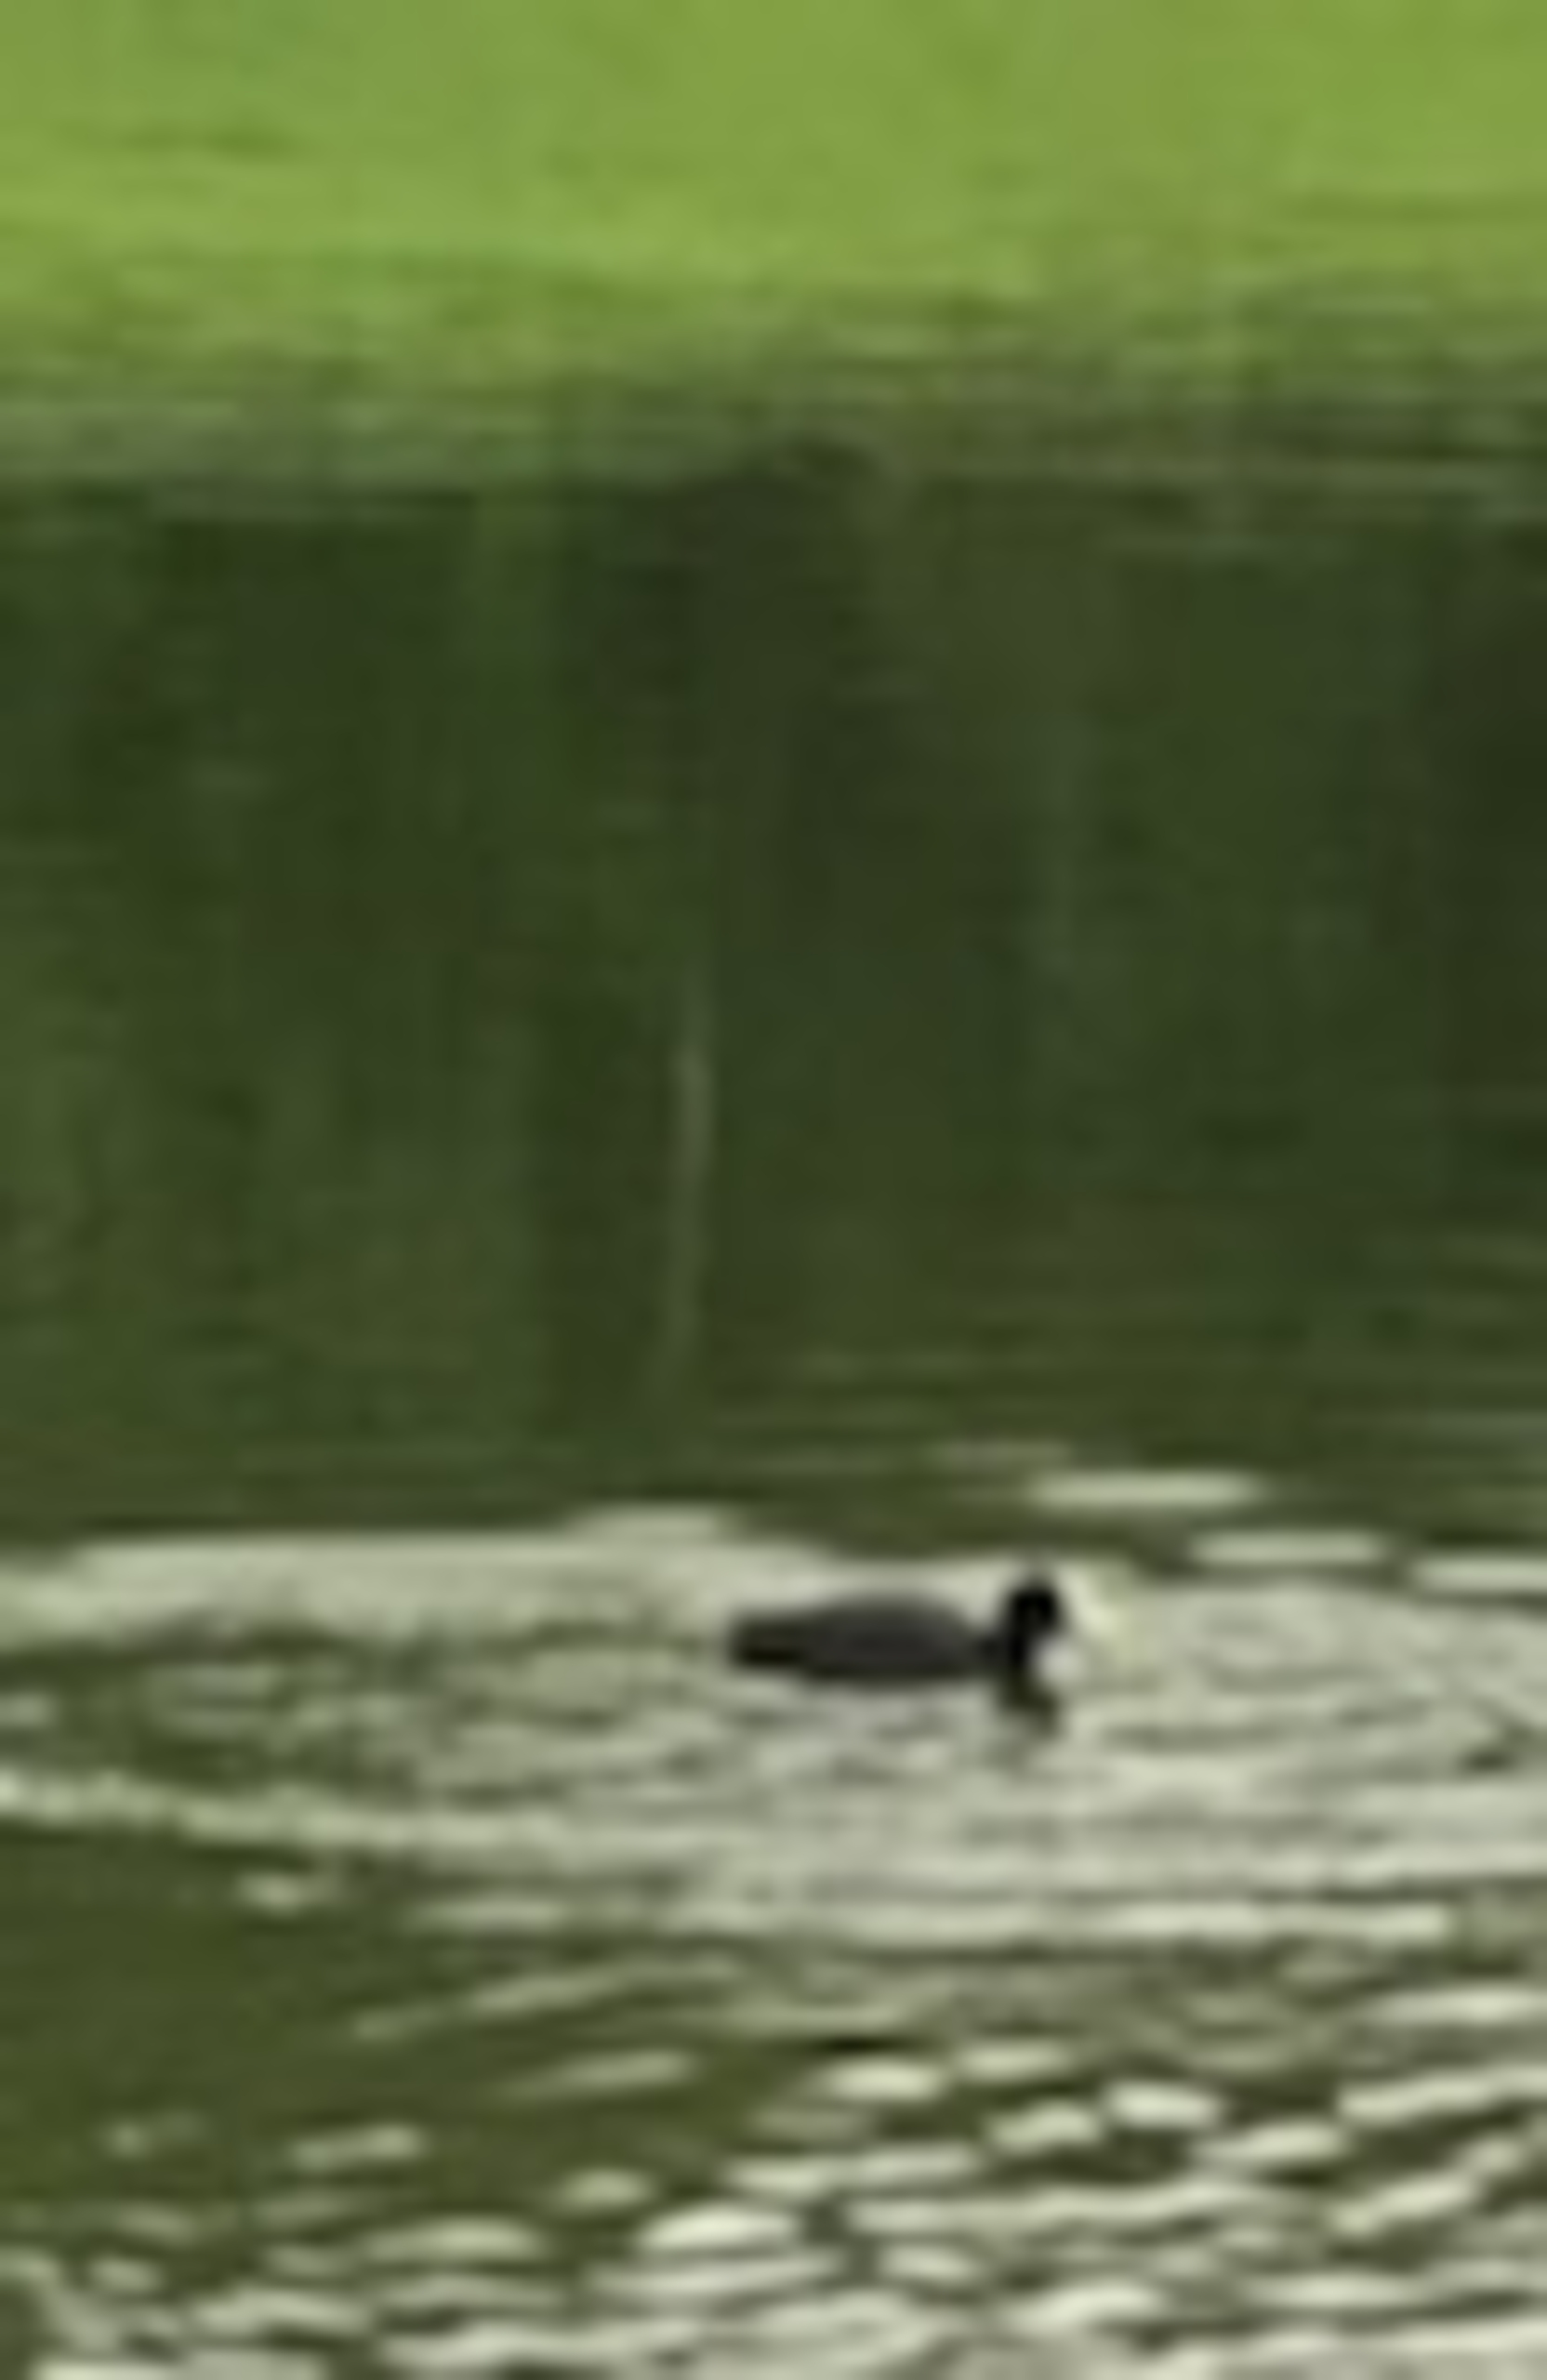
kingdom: Animalia
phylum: Chordata
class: Aves
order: Gruiformes
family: Rallidae
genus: Fulica
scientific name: Fulica atra
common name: Blishøne
